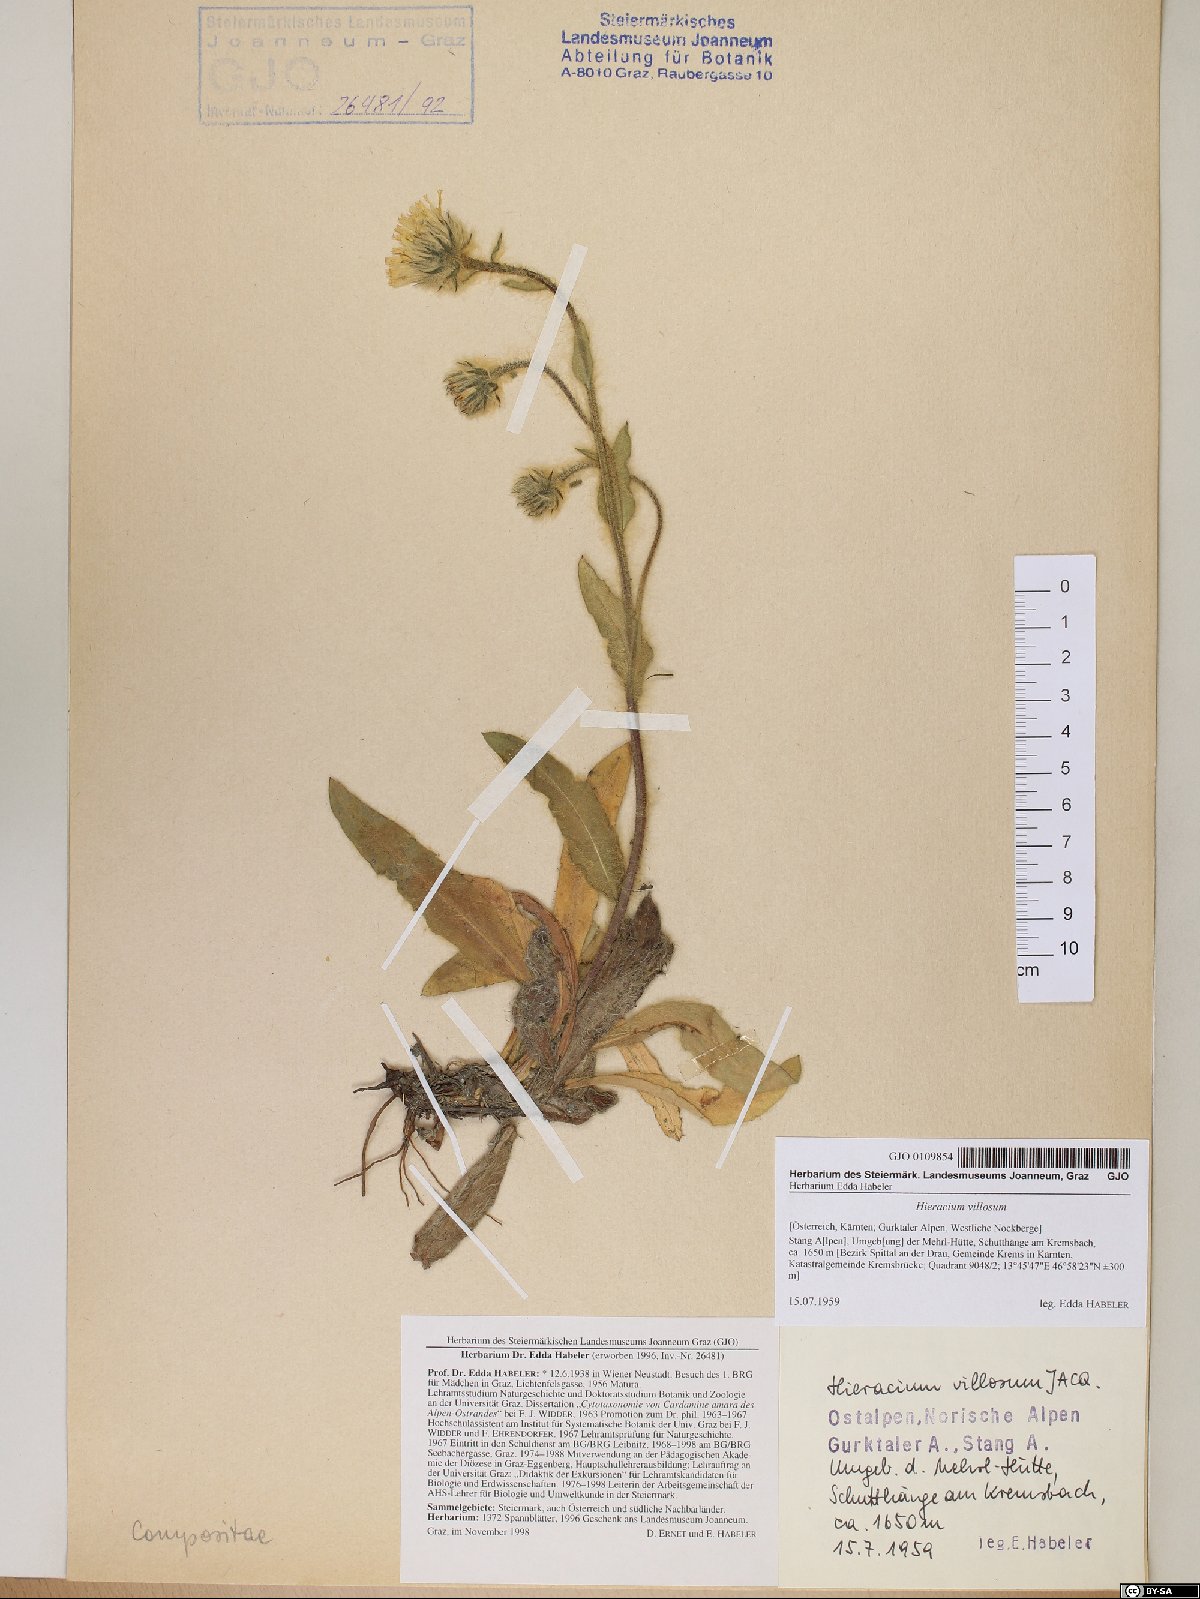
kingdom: Plantae
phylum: Tracheophyta
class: Magnoliopsida
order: Asterales
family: Asteraceae
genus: Hieracium
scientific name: Hieracium villosum
